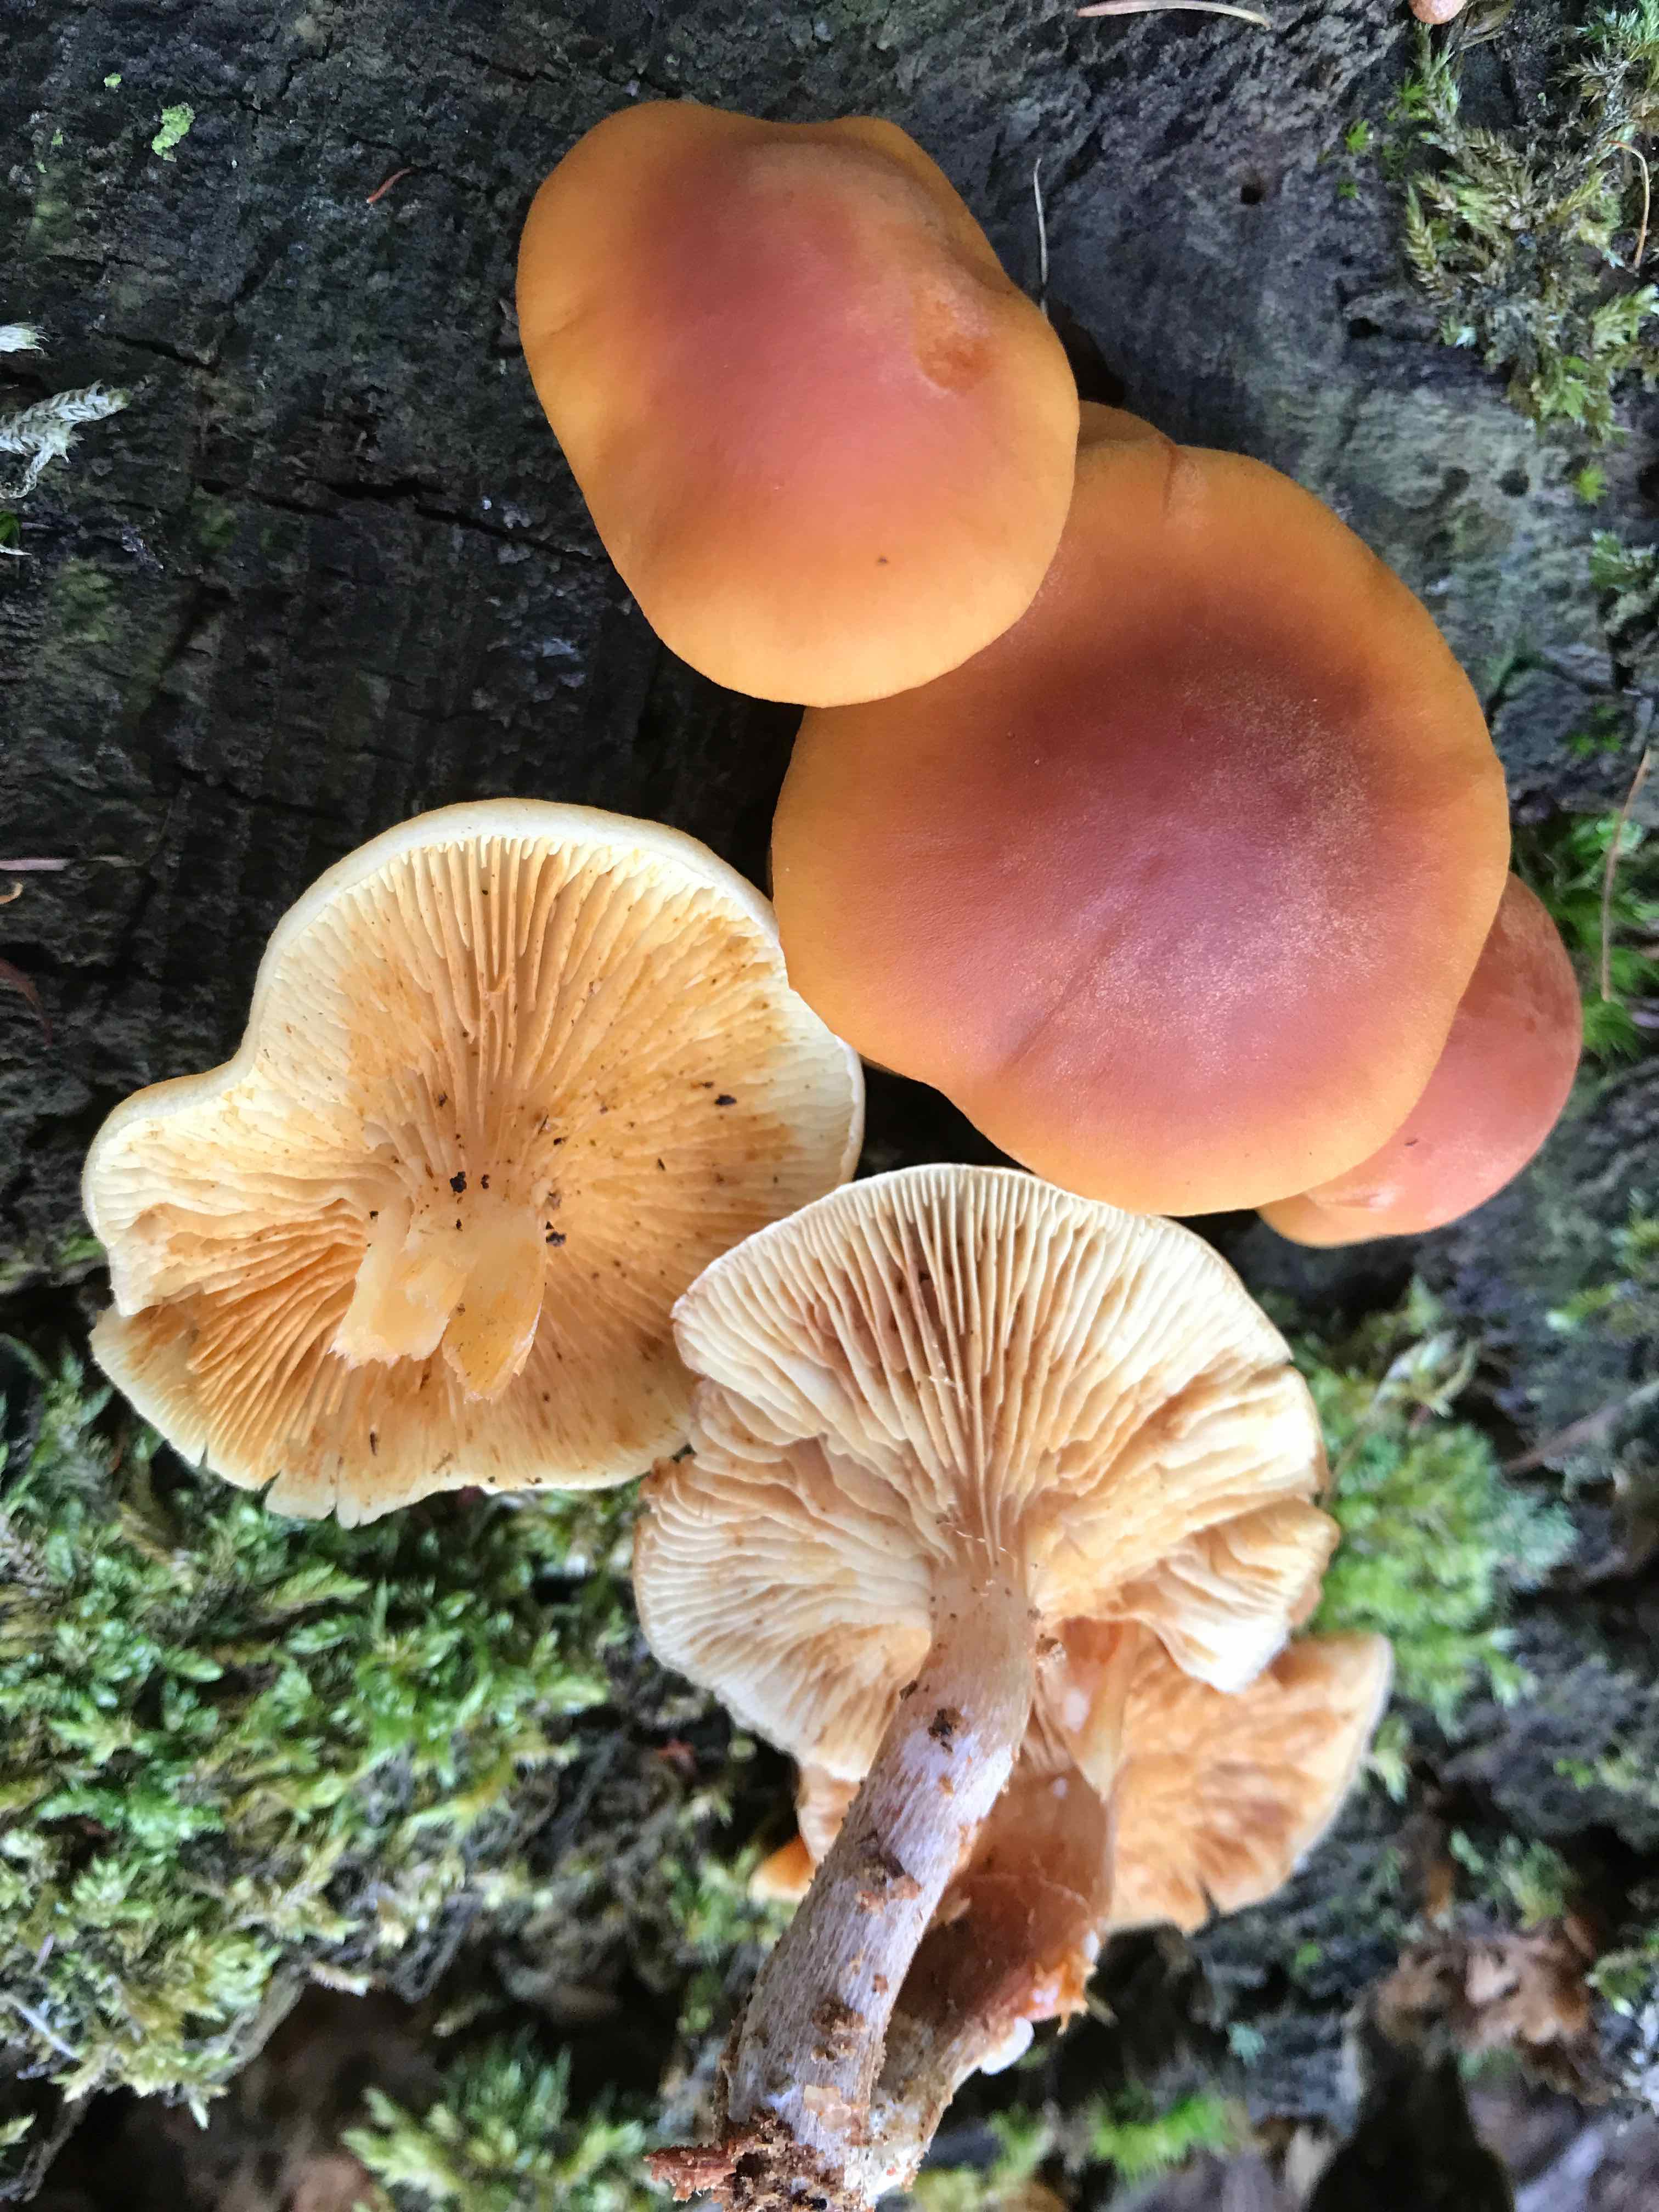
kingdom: Fungi
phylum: Basidiomycota
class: Agaricomycetes
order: Agaricales
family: Hymenogastraceae
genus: Gymnopilus
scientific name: Gymnopilus penetrans
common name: plettet flammehat
